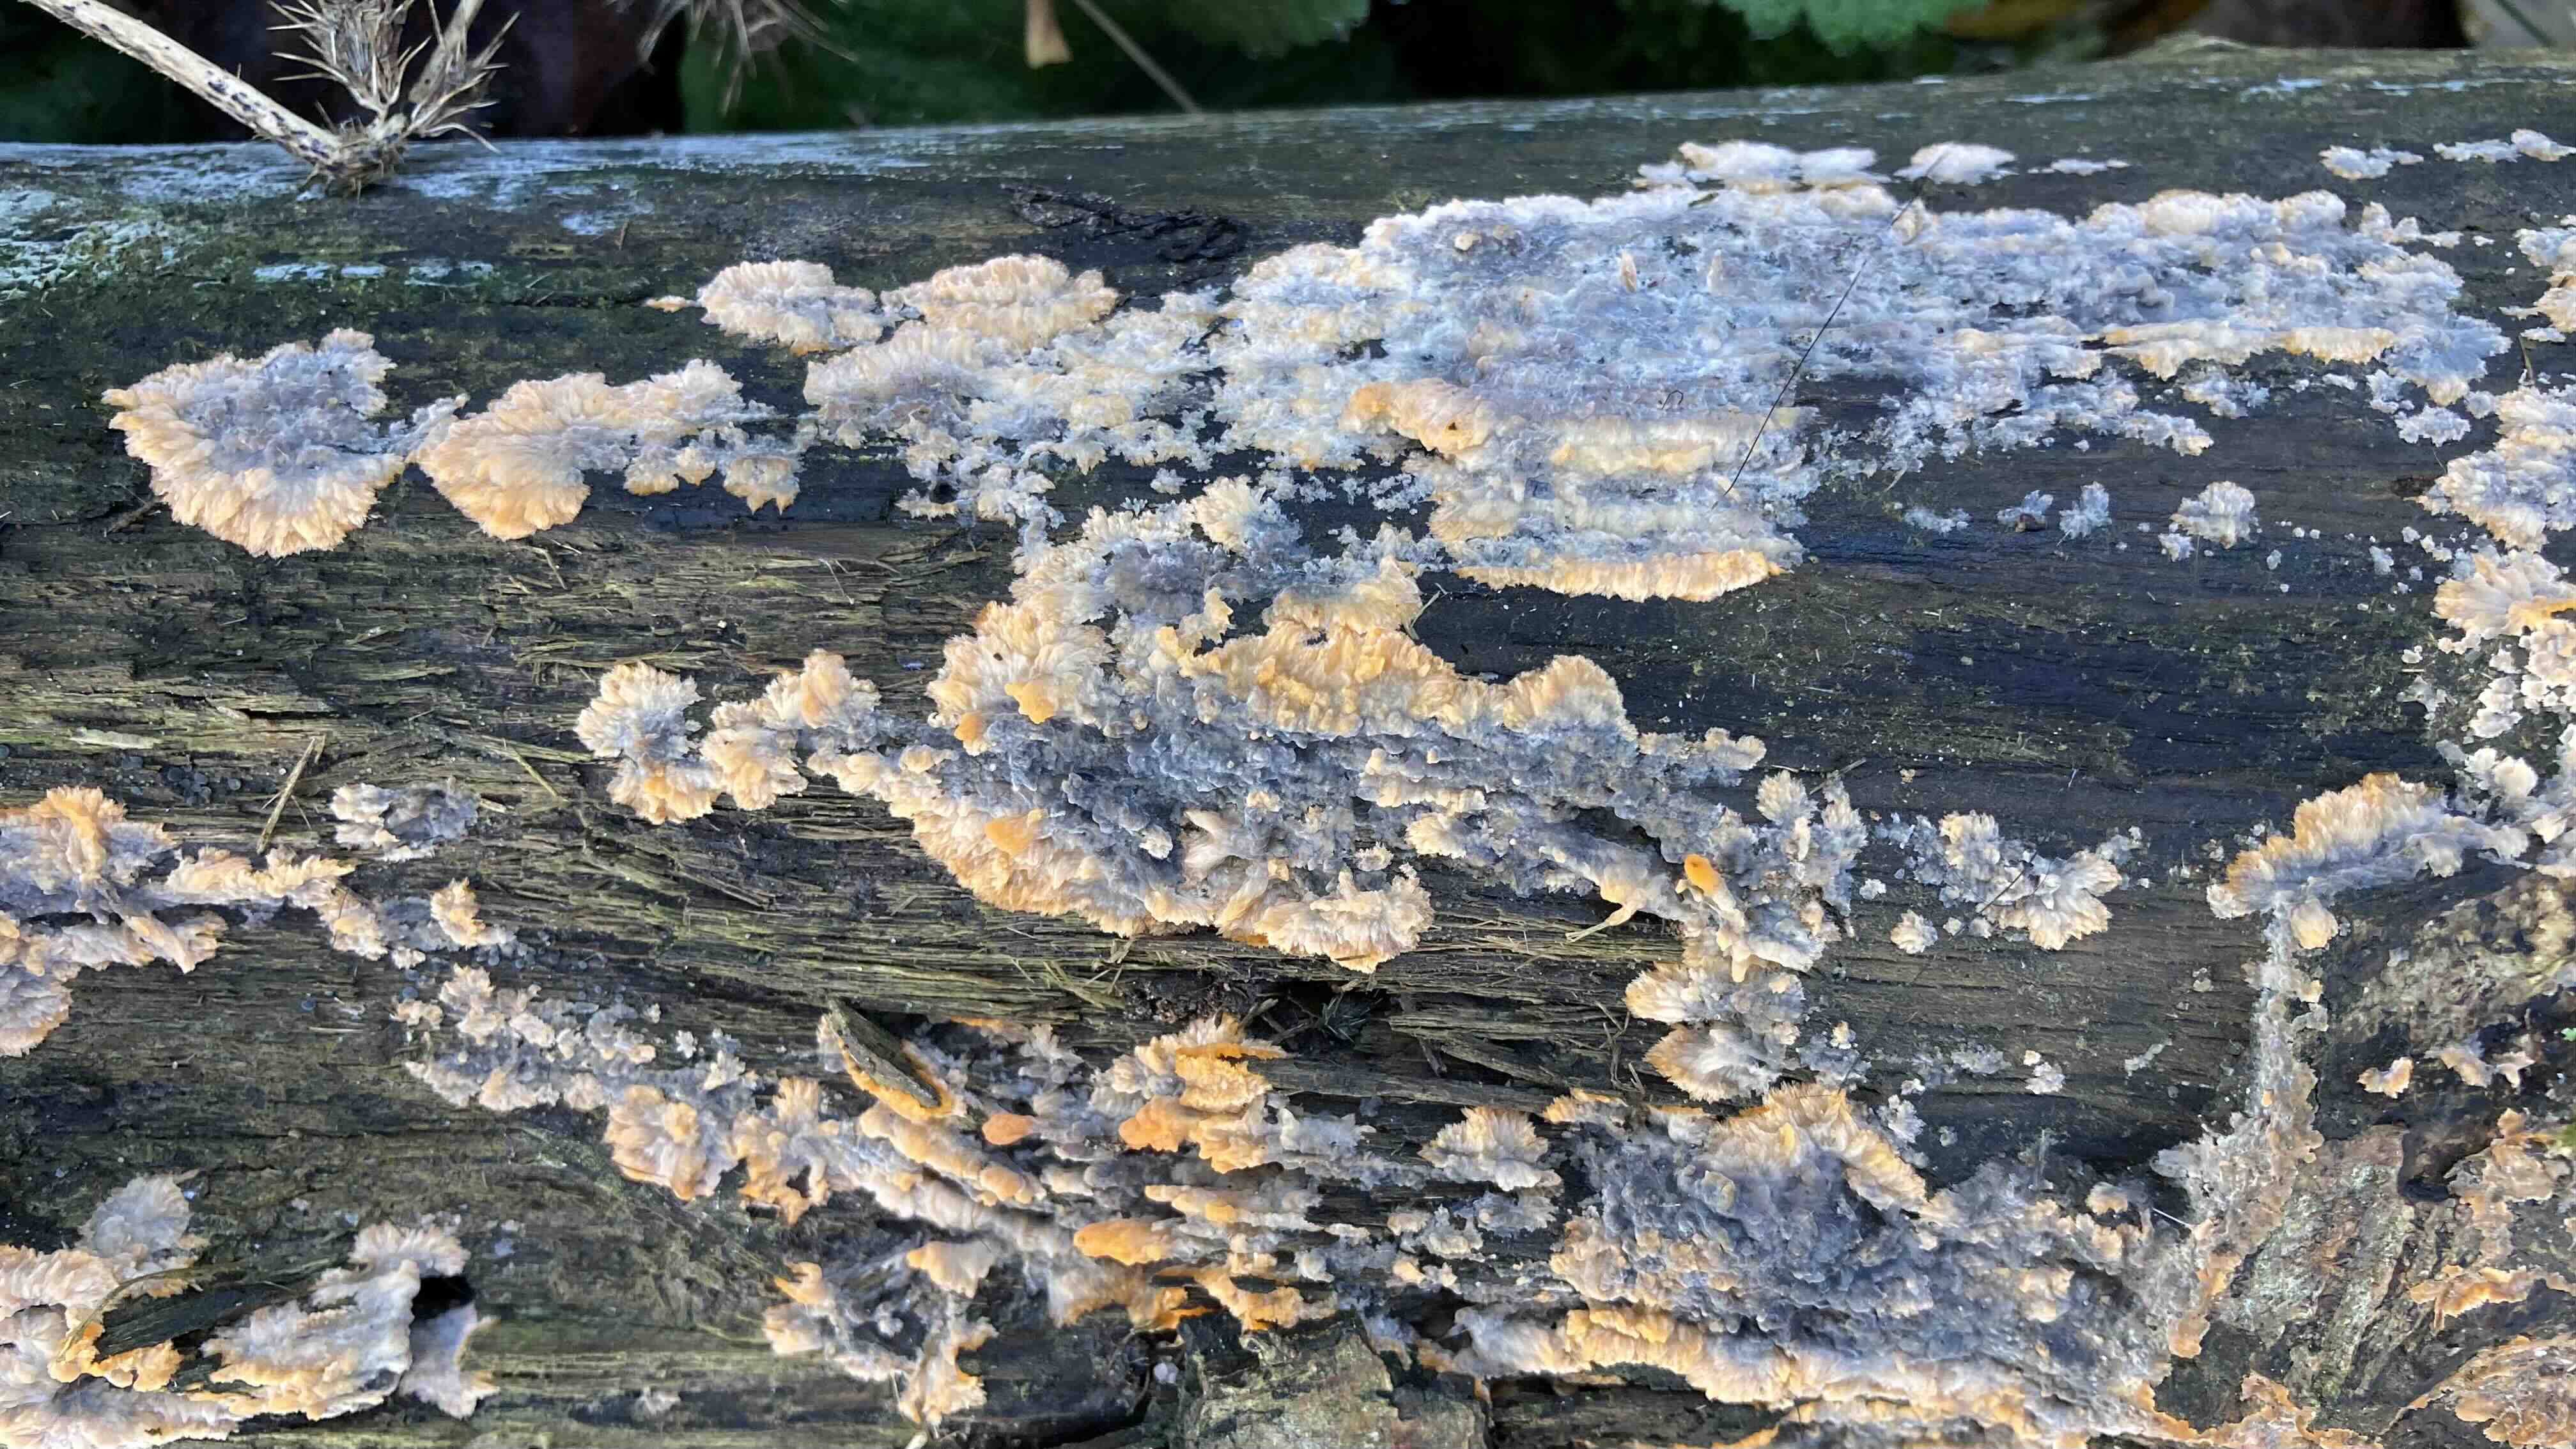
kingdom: Fungi
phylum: Basidiomycota
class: Agaricomycetes
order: Polyporales
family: Meruliaceae
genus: Phlebia
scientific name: Phlebia radiata
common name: stråle-åresvamp
